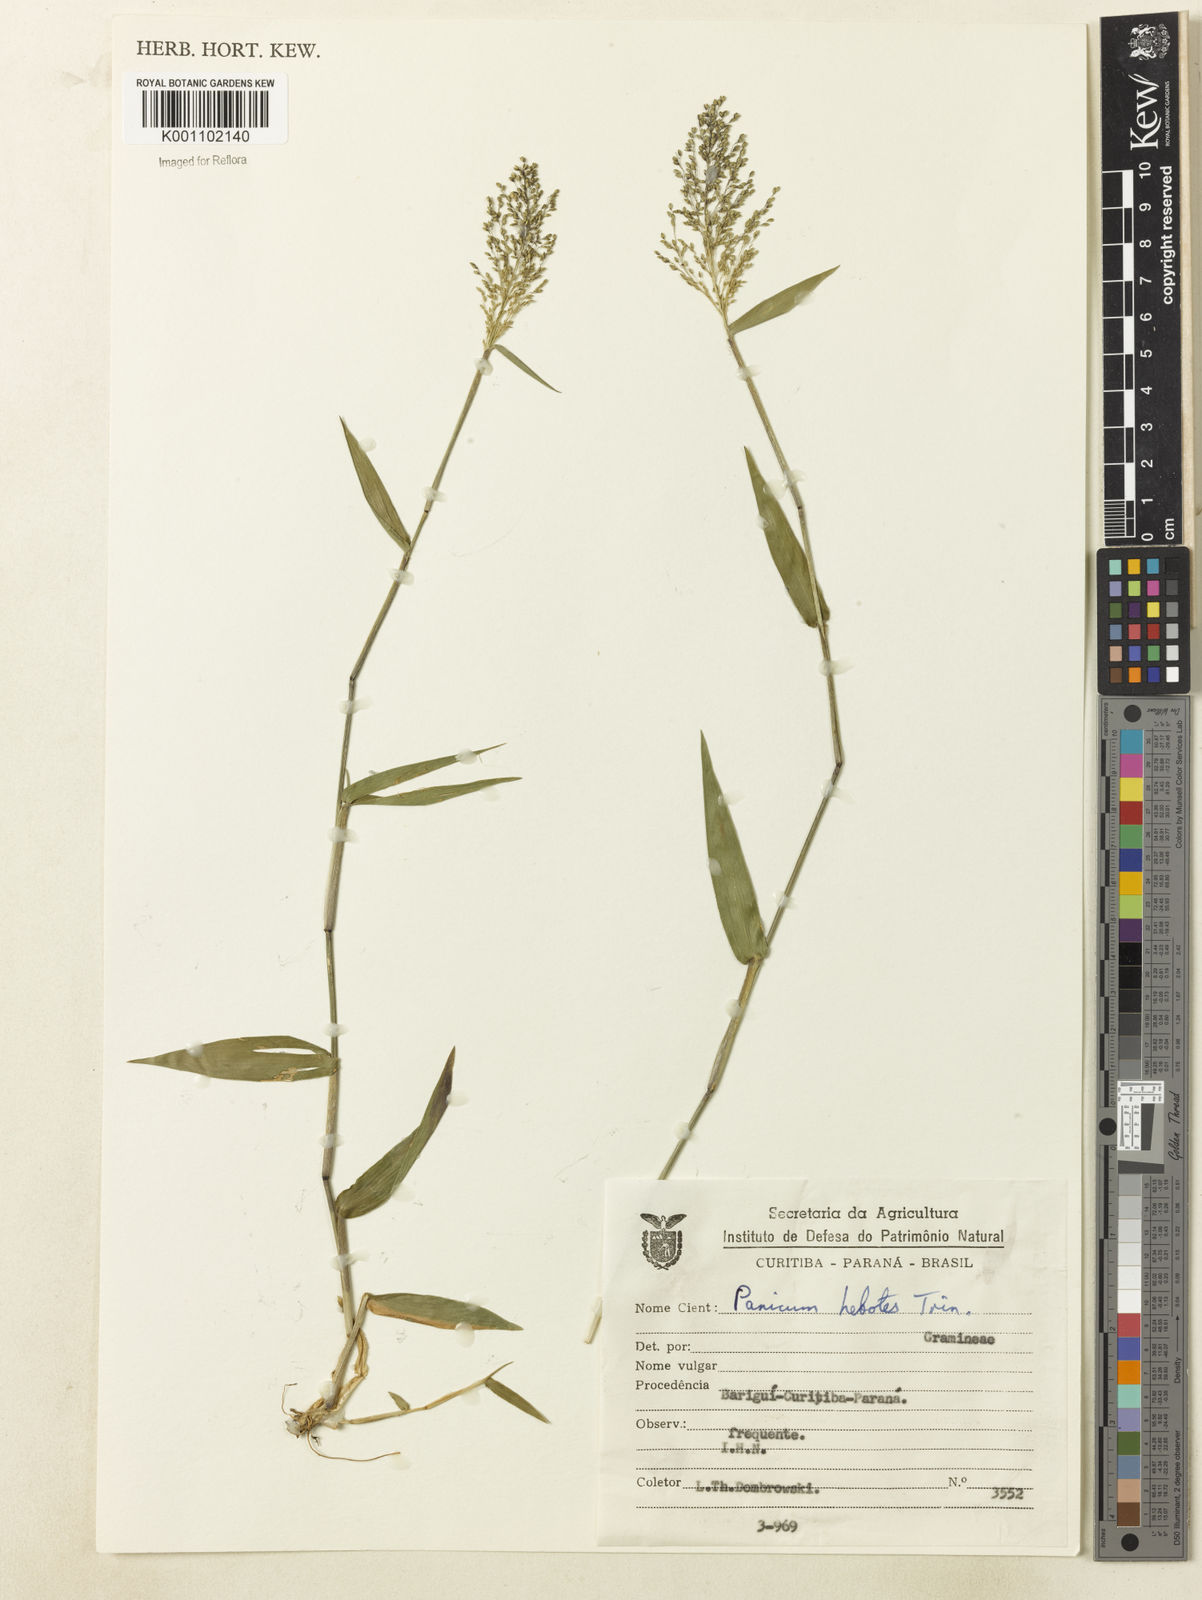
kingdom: Plantae
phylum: Tracheophyta
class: Liliopsida
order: Poales
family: Poaceae
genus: Dichanthelium
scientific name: Dichanthelium stigmosum
